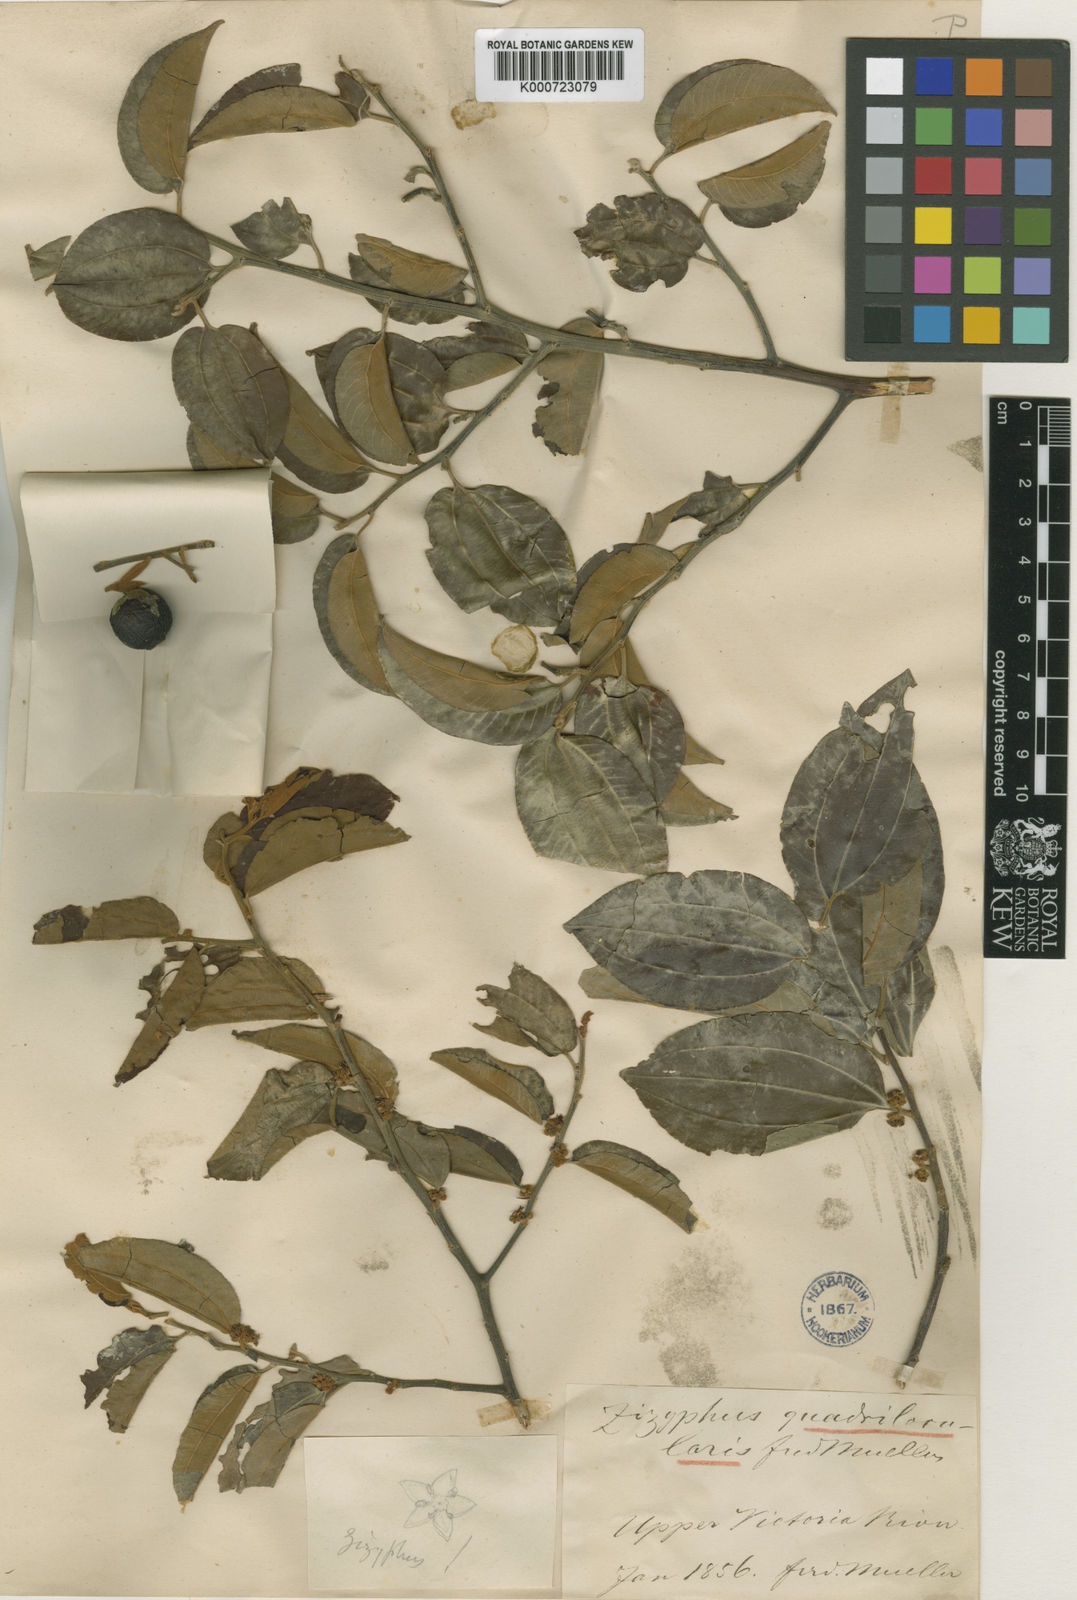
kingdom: Plantae
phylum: Tracheophyta
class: Magnoliopsida
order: Rosales
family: Rhamnaceae
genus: Ziziphus
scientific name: Ziziphus quadrilocularis
